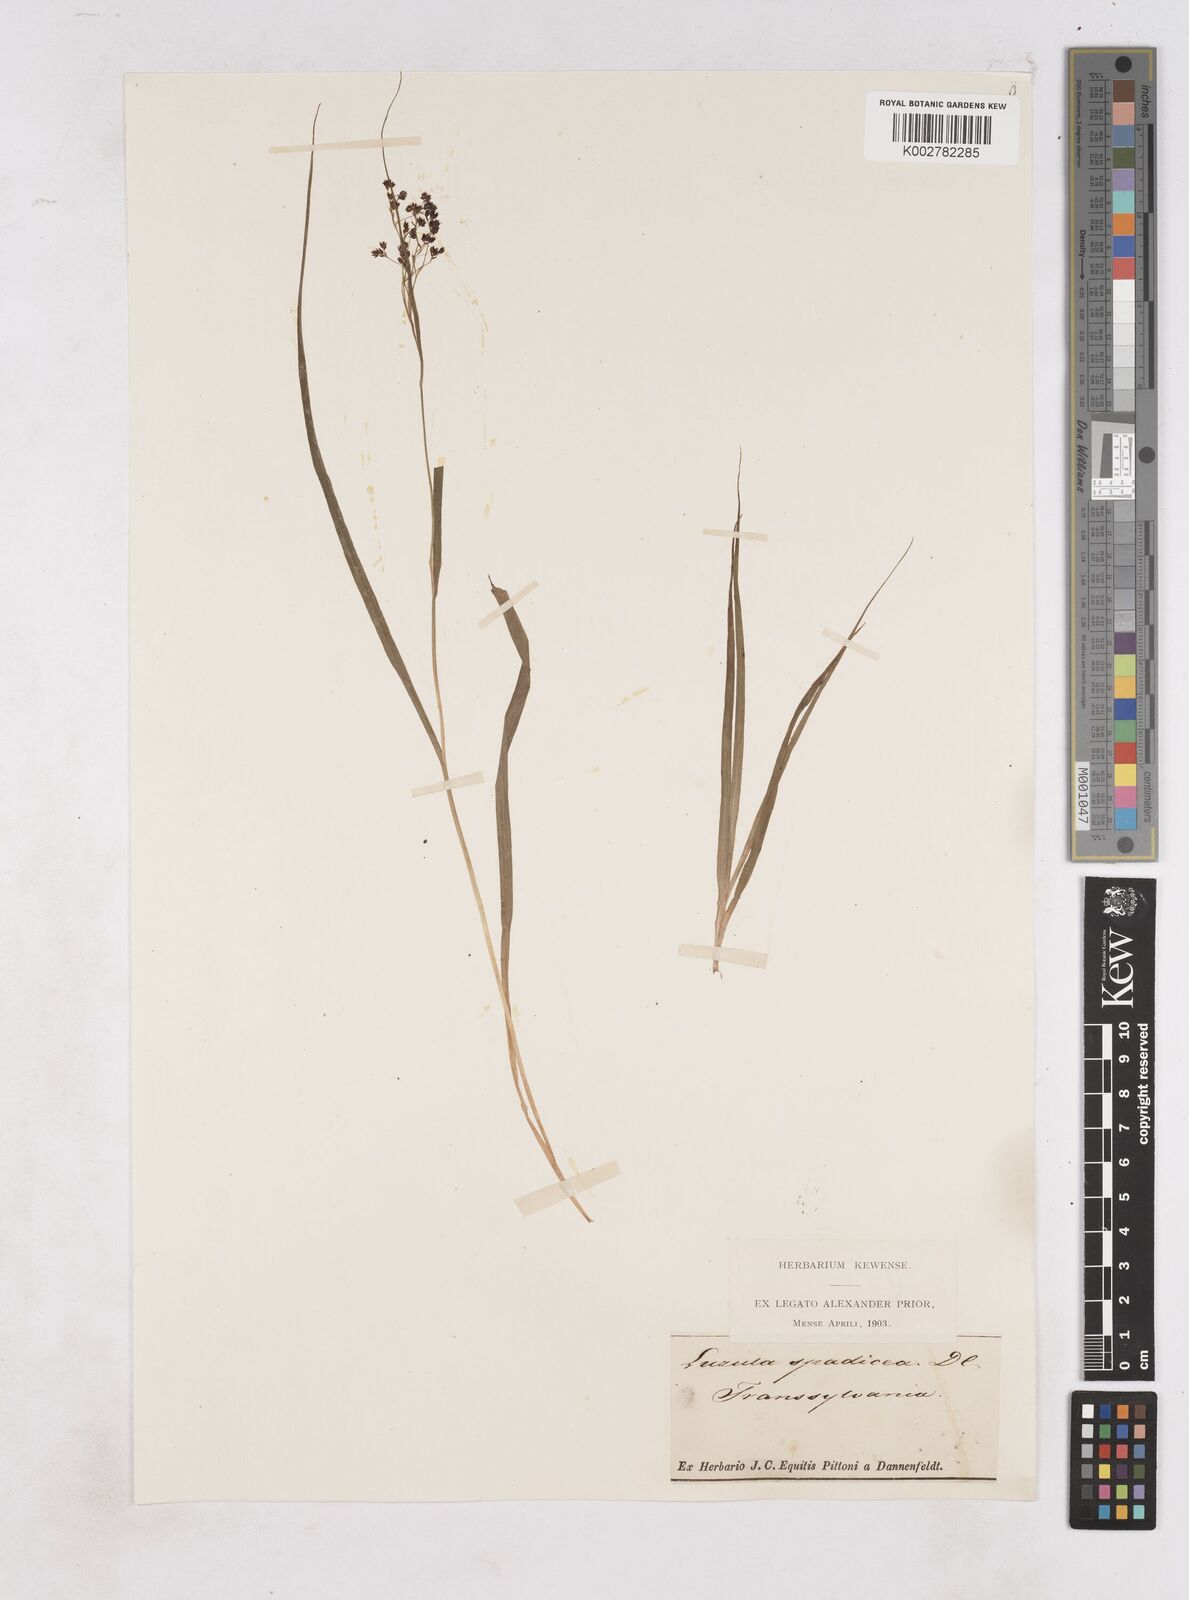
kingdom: Plantae
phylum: Tracheophyta
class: Liliopsida
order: Poales
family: Juncaceae
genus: Luzula
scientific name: Luzula alpinopilosa
